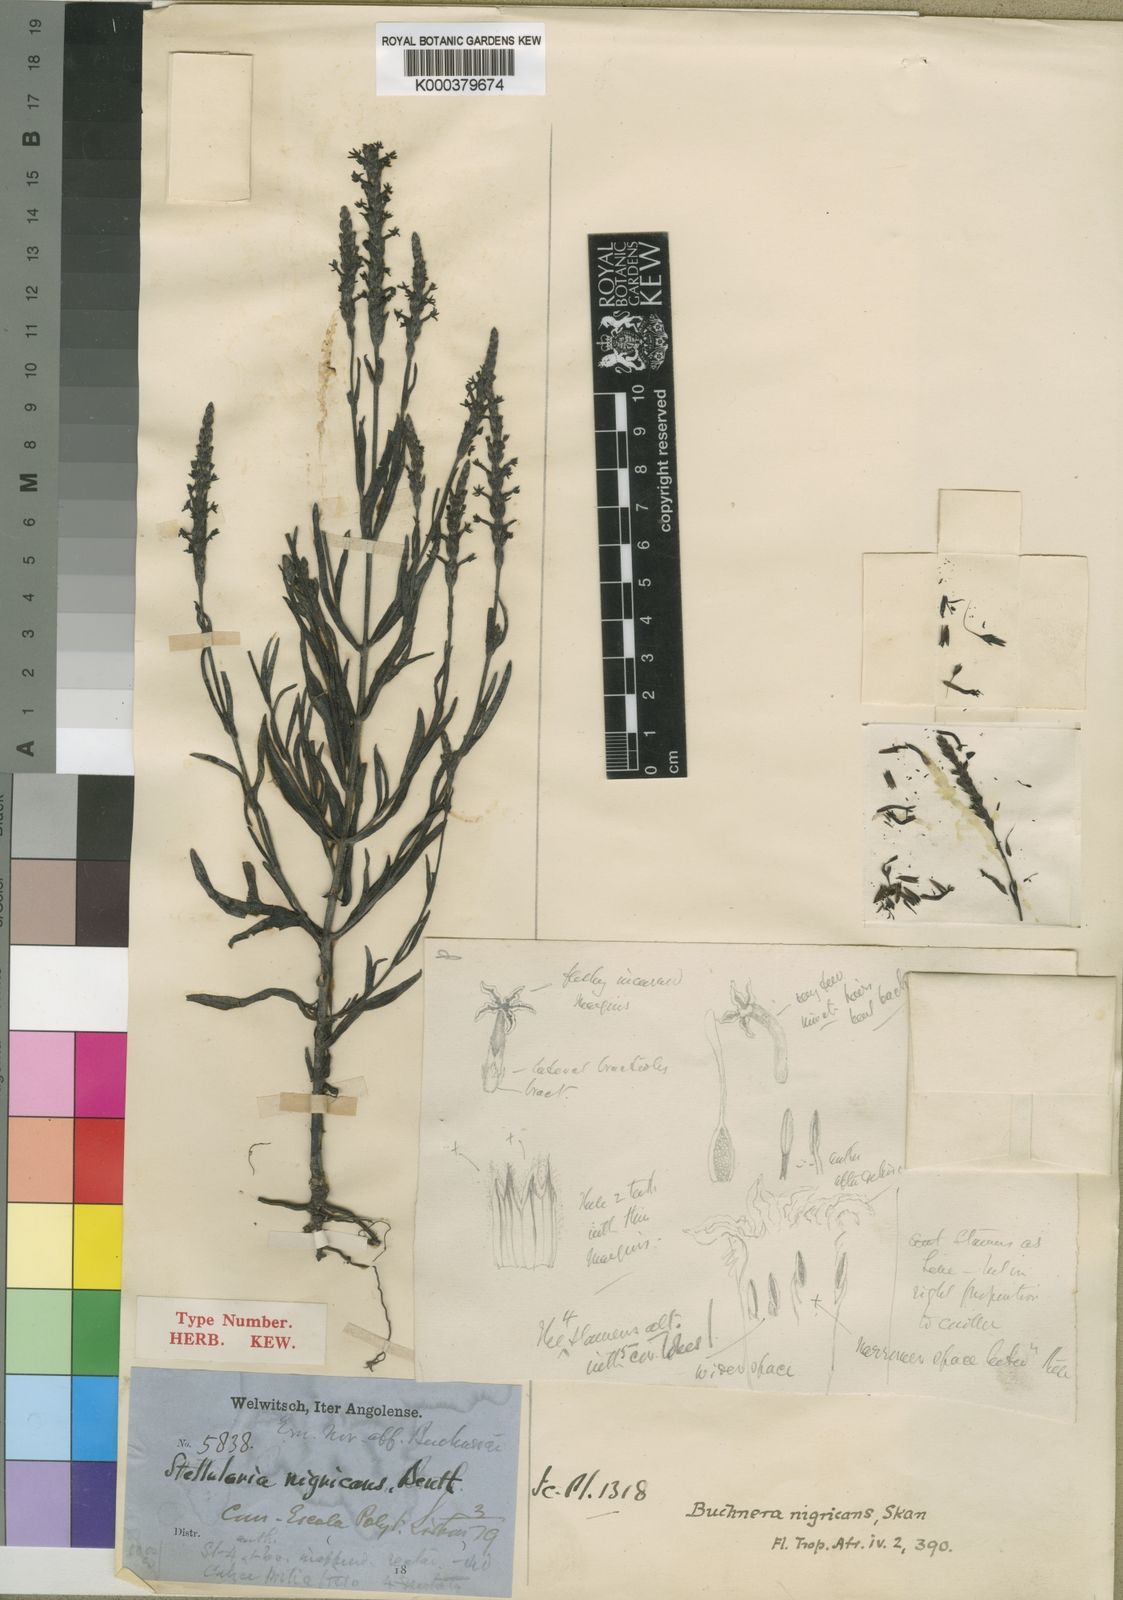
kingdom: Plantae
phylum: Tracheophyta
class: Magnoliopsida
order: Lamiales
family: Orobanchaceae
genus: Buchnera
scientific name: Buchnera nigricans
